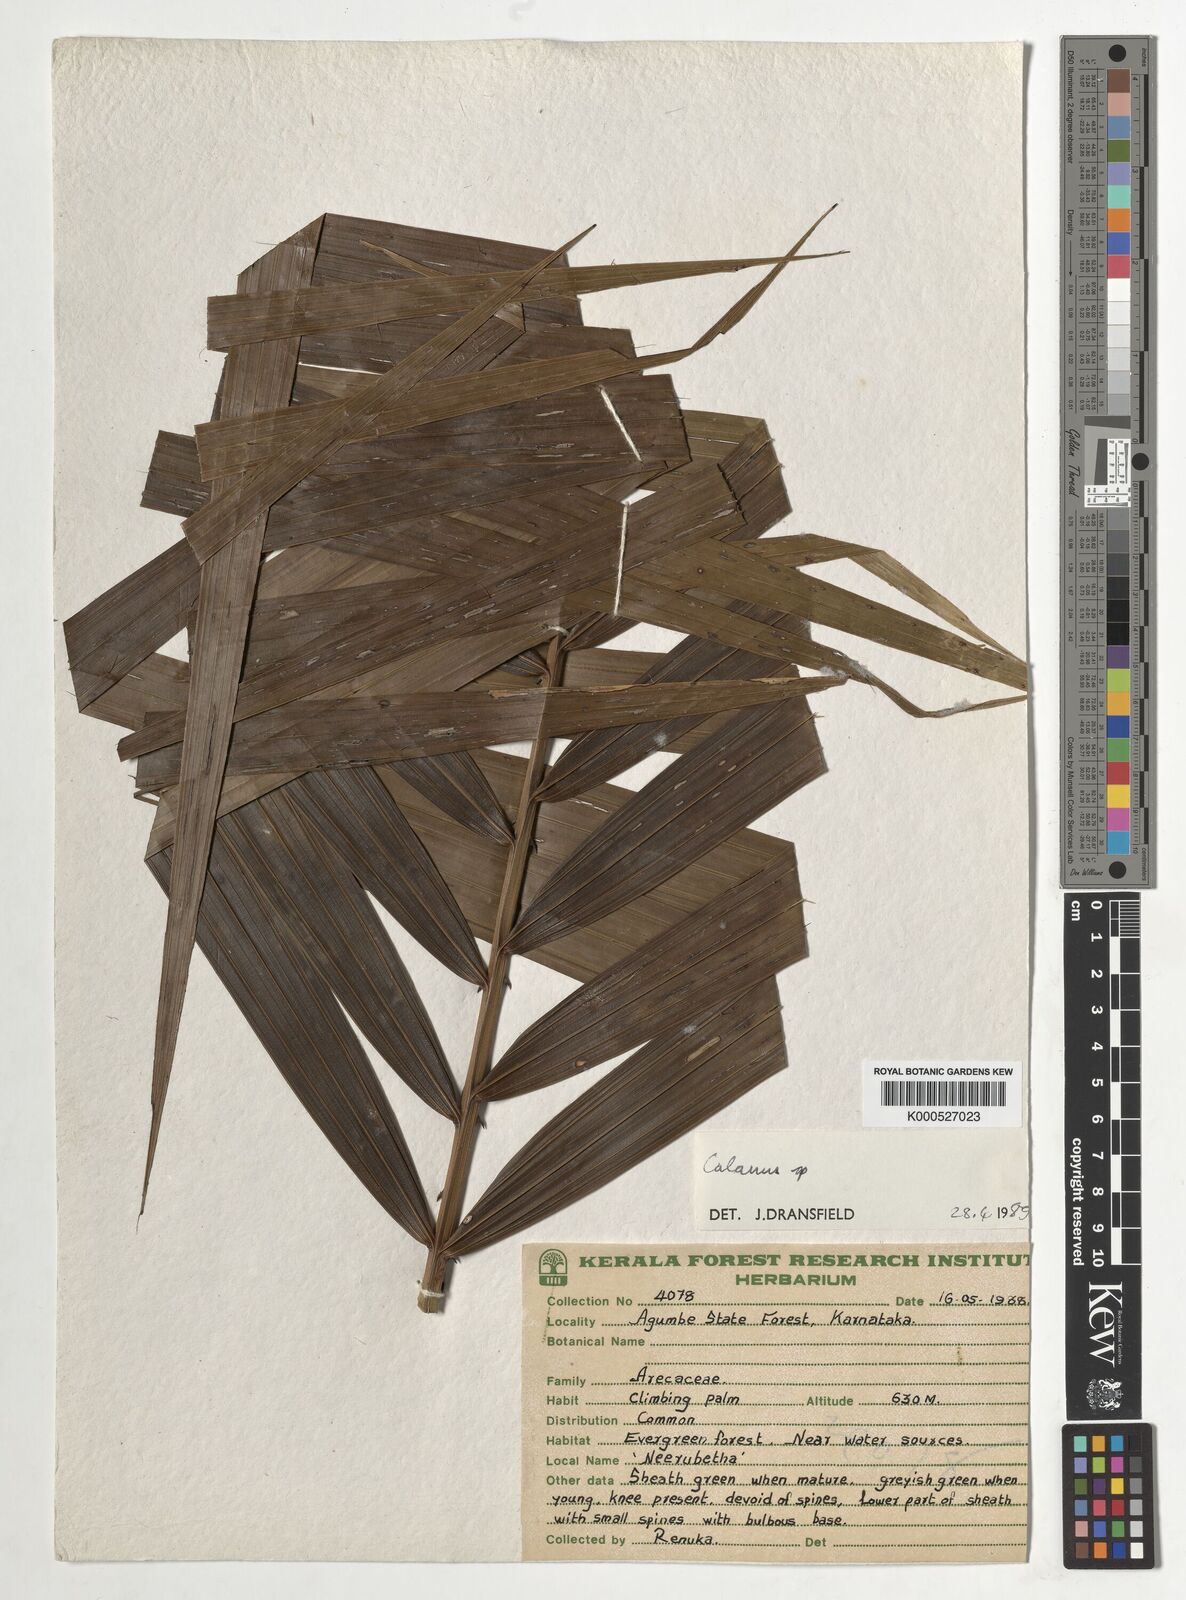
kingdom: Plantae
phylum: Tracheophyta
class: Liliopsida
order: Arecales
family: Arecaceae
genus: Calamus
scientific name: Calamus gamblei
